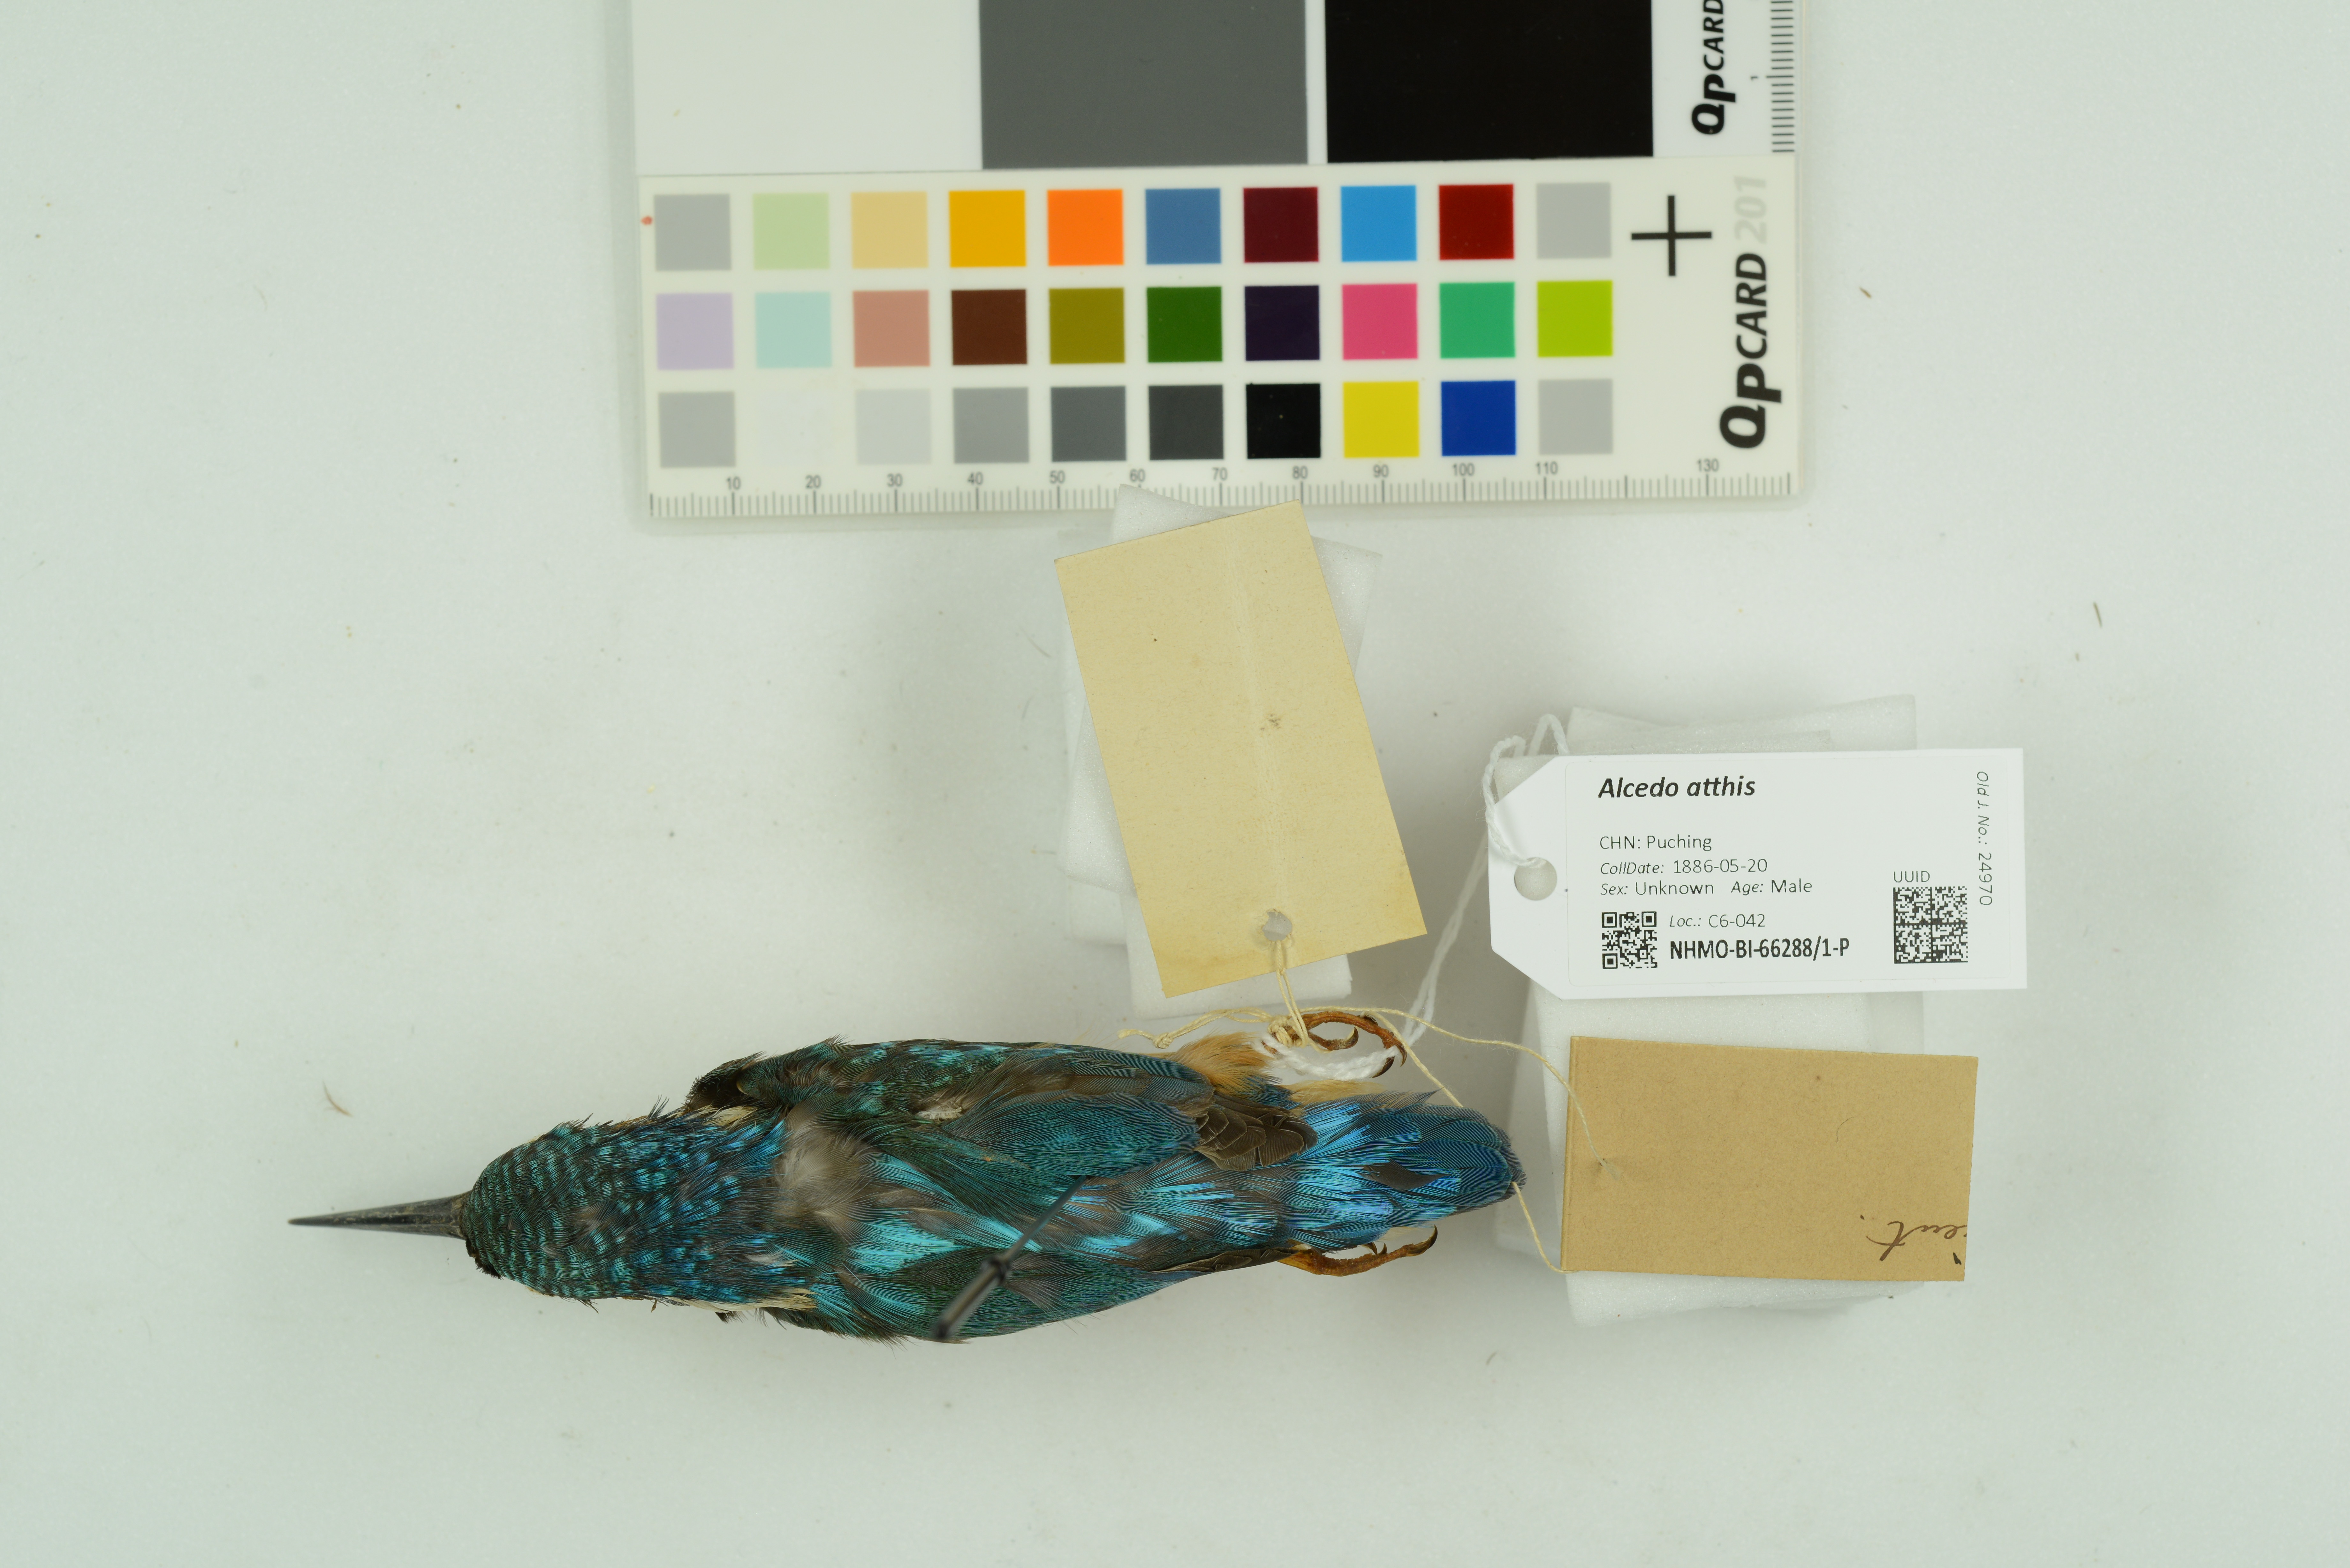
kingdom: Animalia
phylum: Chordata
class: Aves
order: Coraciiformes
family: Alcedinidae
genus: Alcedo
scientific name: Alcedo atthis
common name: Common kingfisher
